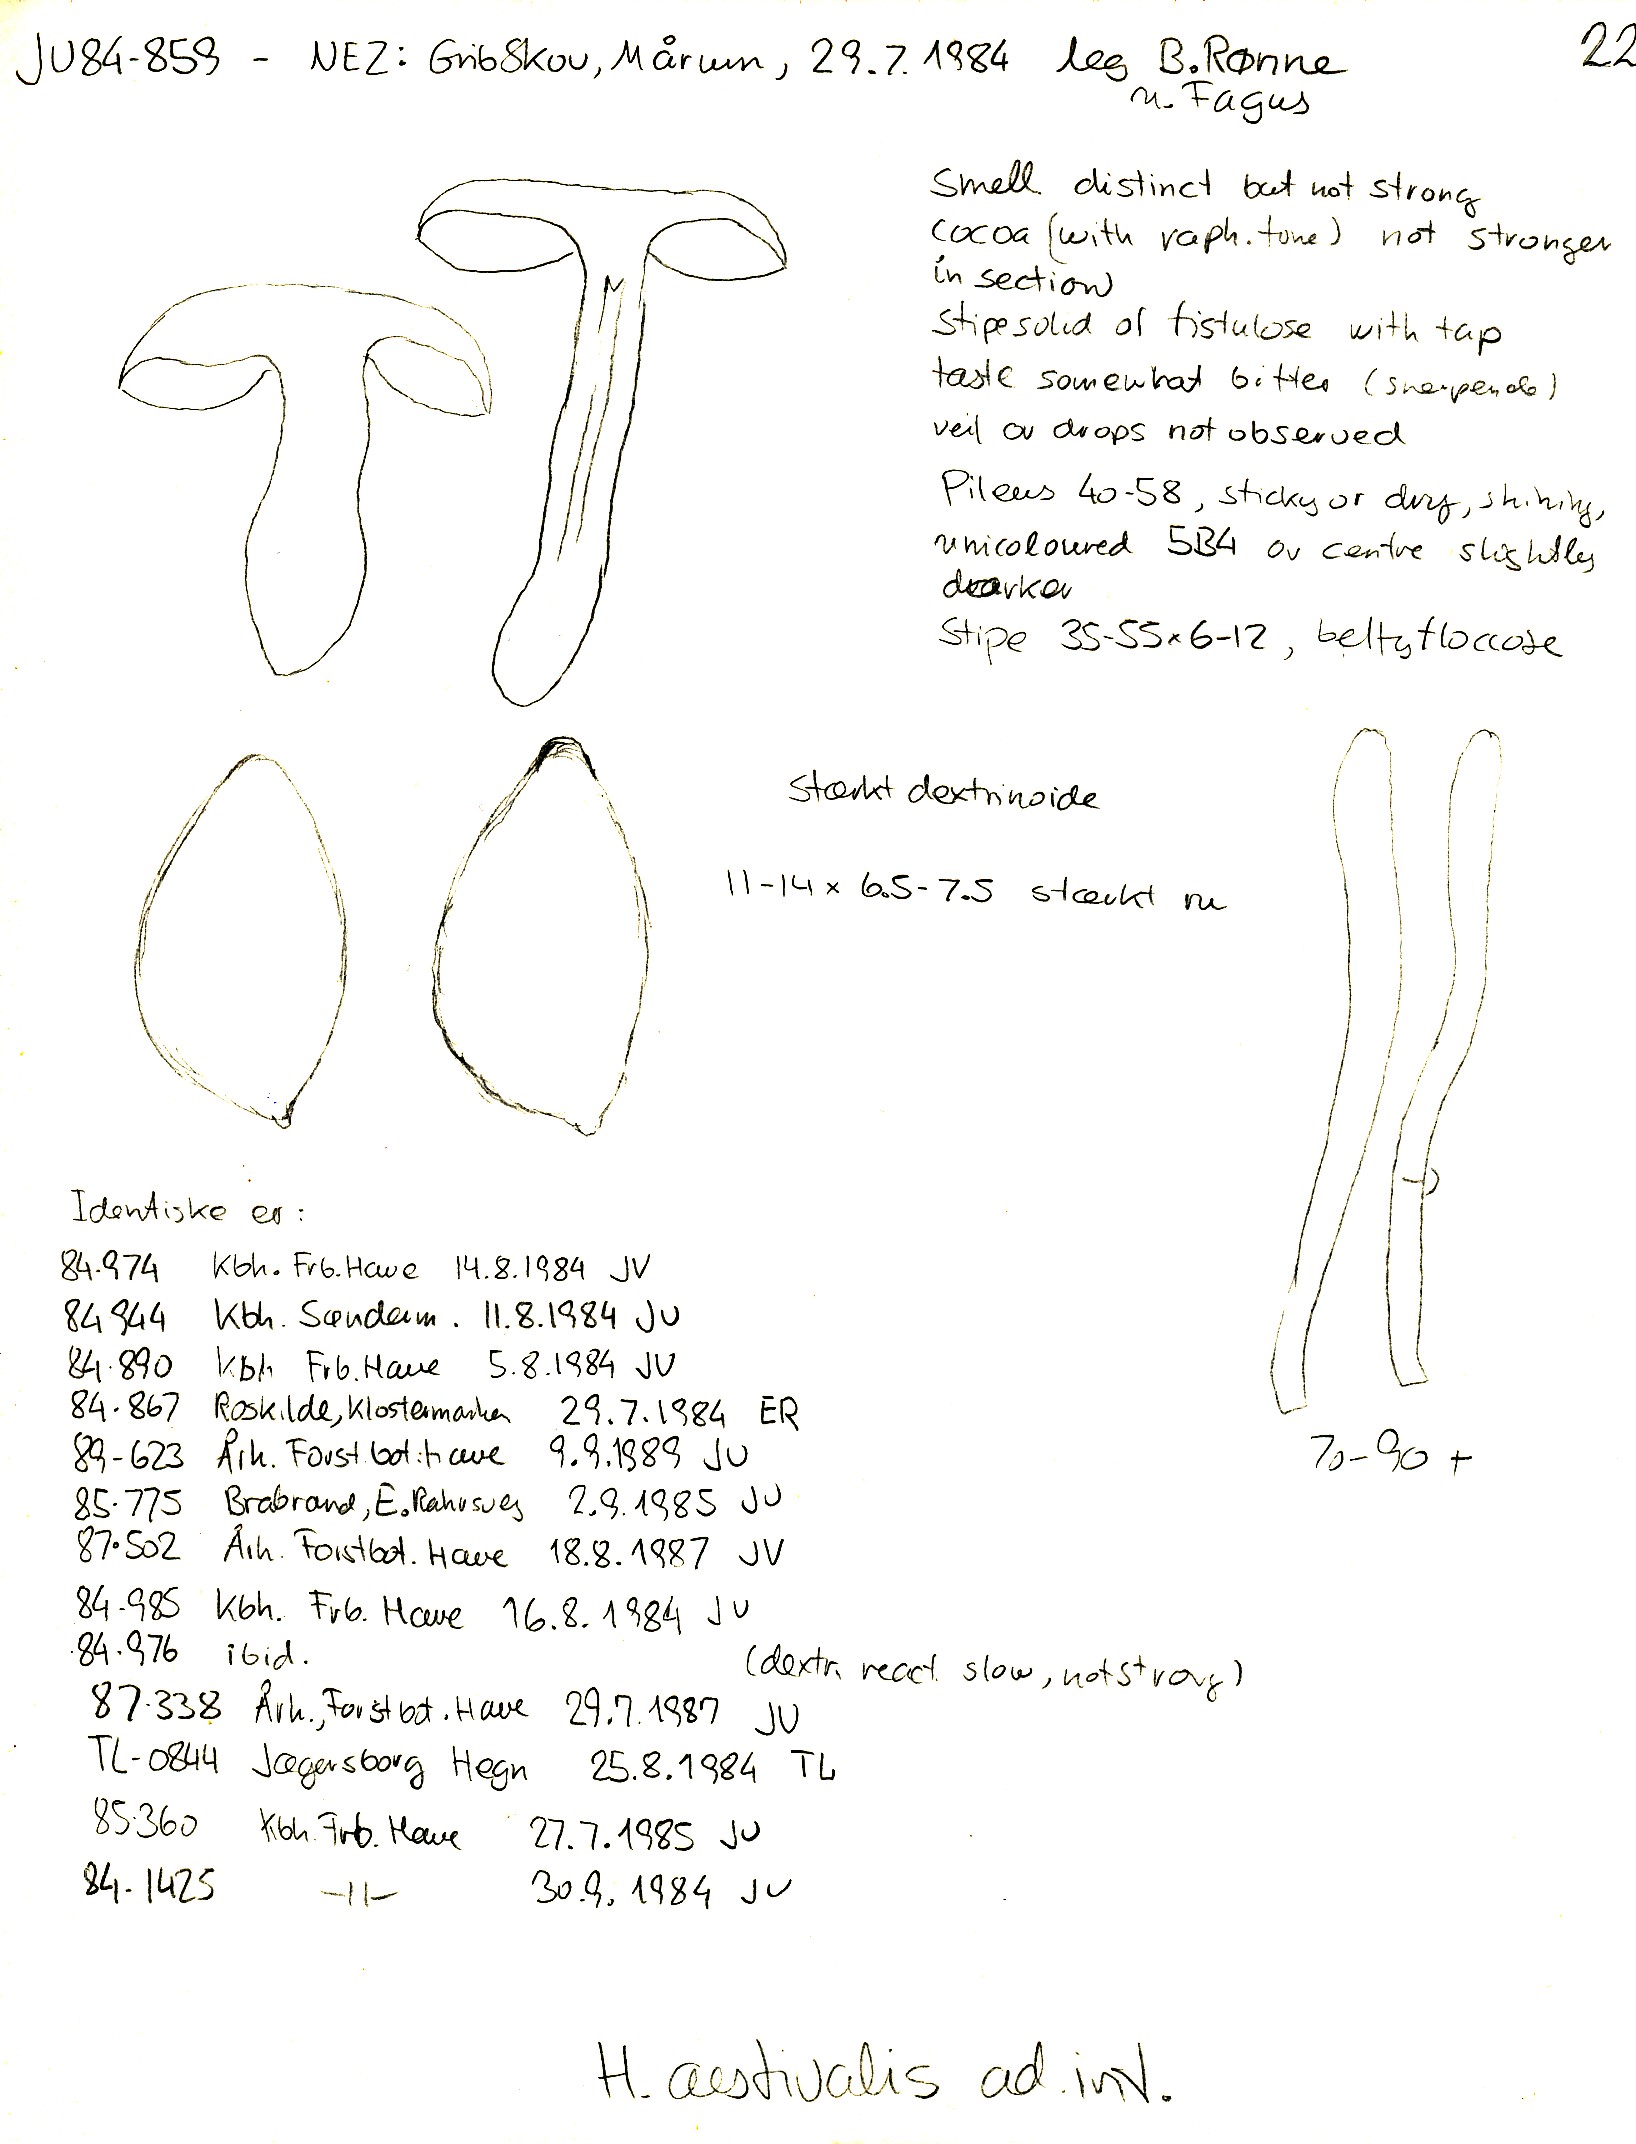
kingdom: Fungi
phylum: Basidiomycota
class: Agaricomycetes
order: Agaricales
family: Hymenogastraceae
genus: Hebeloma
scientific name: Hebeloma aestivale
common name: sommer-tåreblad
